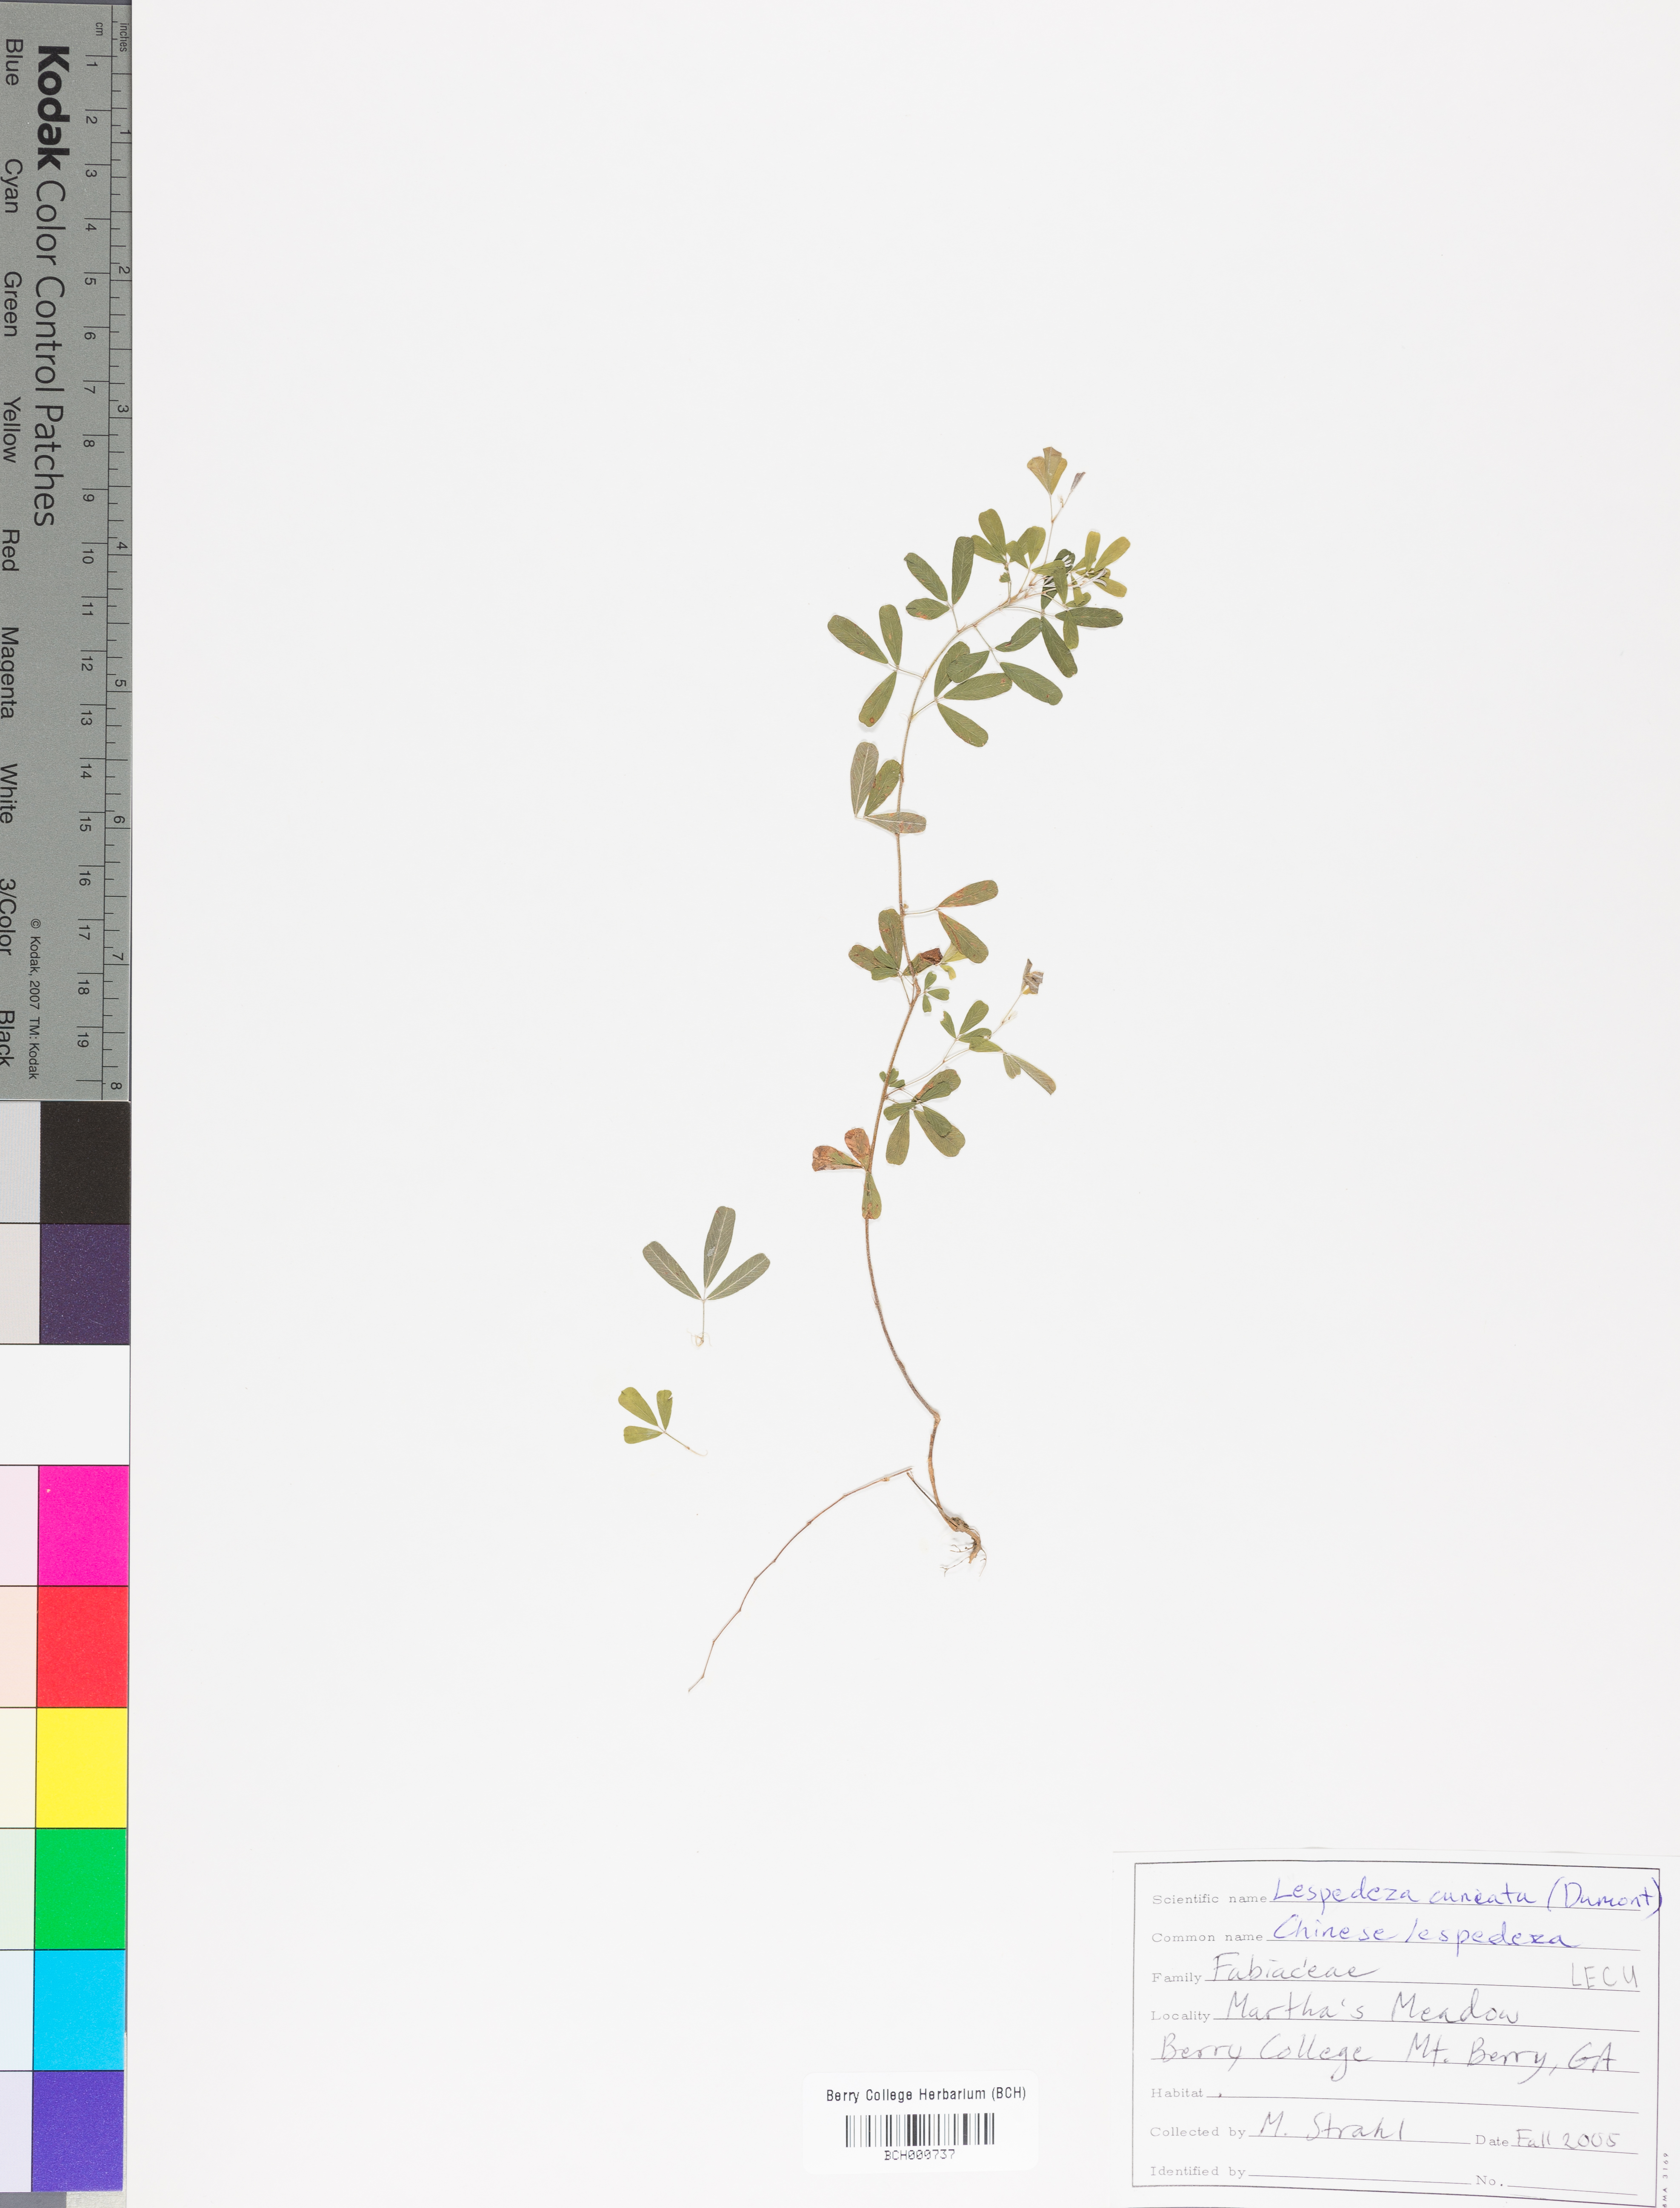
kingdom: Plantae
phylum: Tracheophyta
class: Magnoliopsida
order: Fabales
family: Fabaceae
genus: Lespedeza
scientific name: Lespedeza cuneata
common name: Chinese bush-clover
